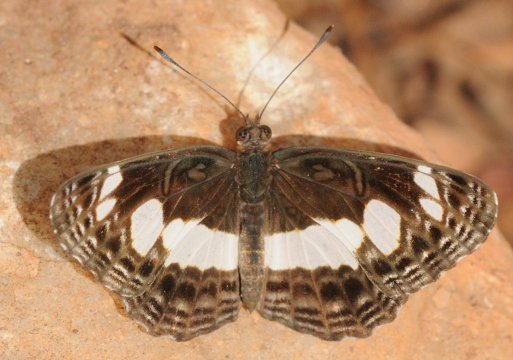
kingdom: Animalia
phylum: Arthropoda
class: Insecta
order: Lepidoptera
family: Nymphalidae
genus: Neptis
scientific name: Neptis saclava
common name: Spotted Sailer
